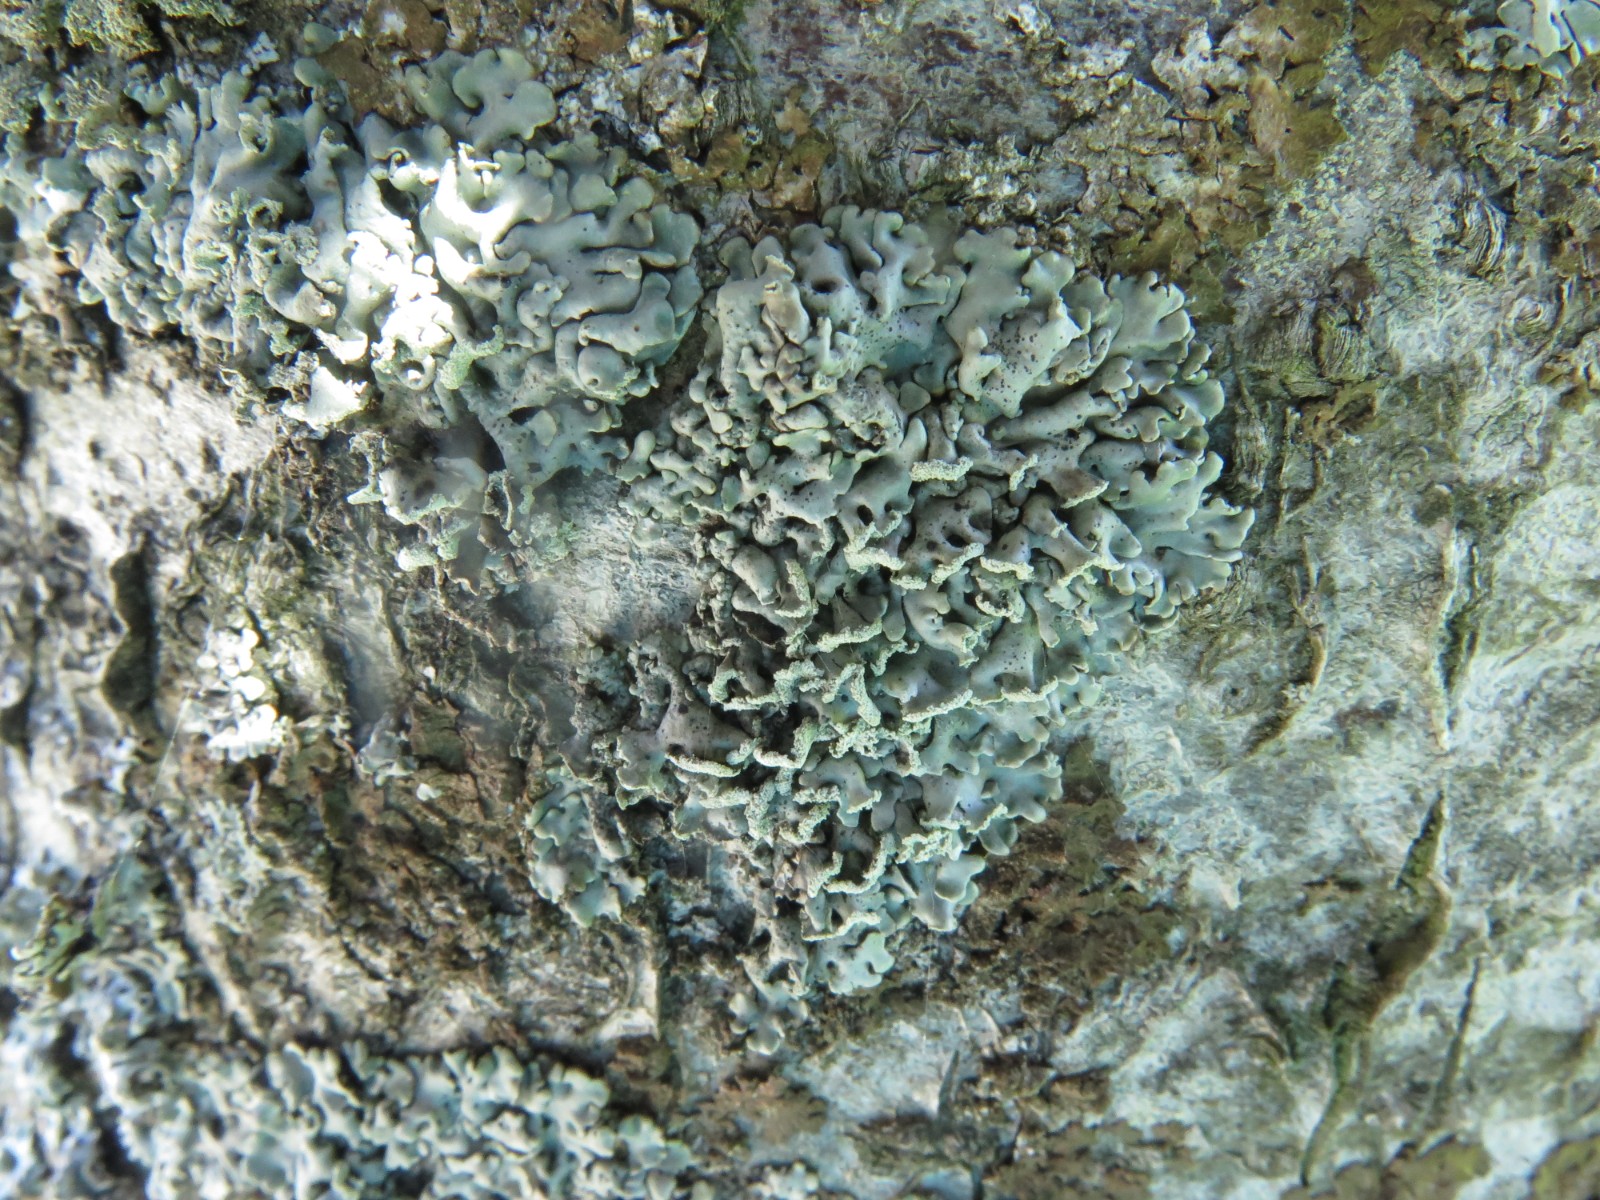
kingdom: Fungi
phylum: Ascomycota
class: Lecanoromycetes
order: Lecanorales
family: Parmeliaceae
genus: Hypogymnia
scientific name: Hypogymnia physodes
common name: almindelig kvistlav
